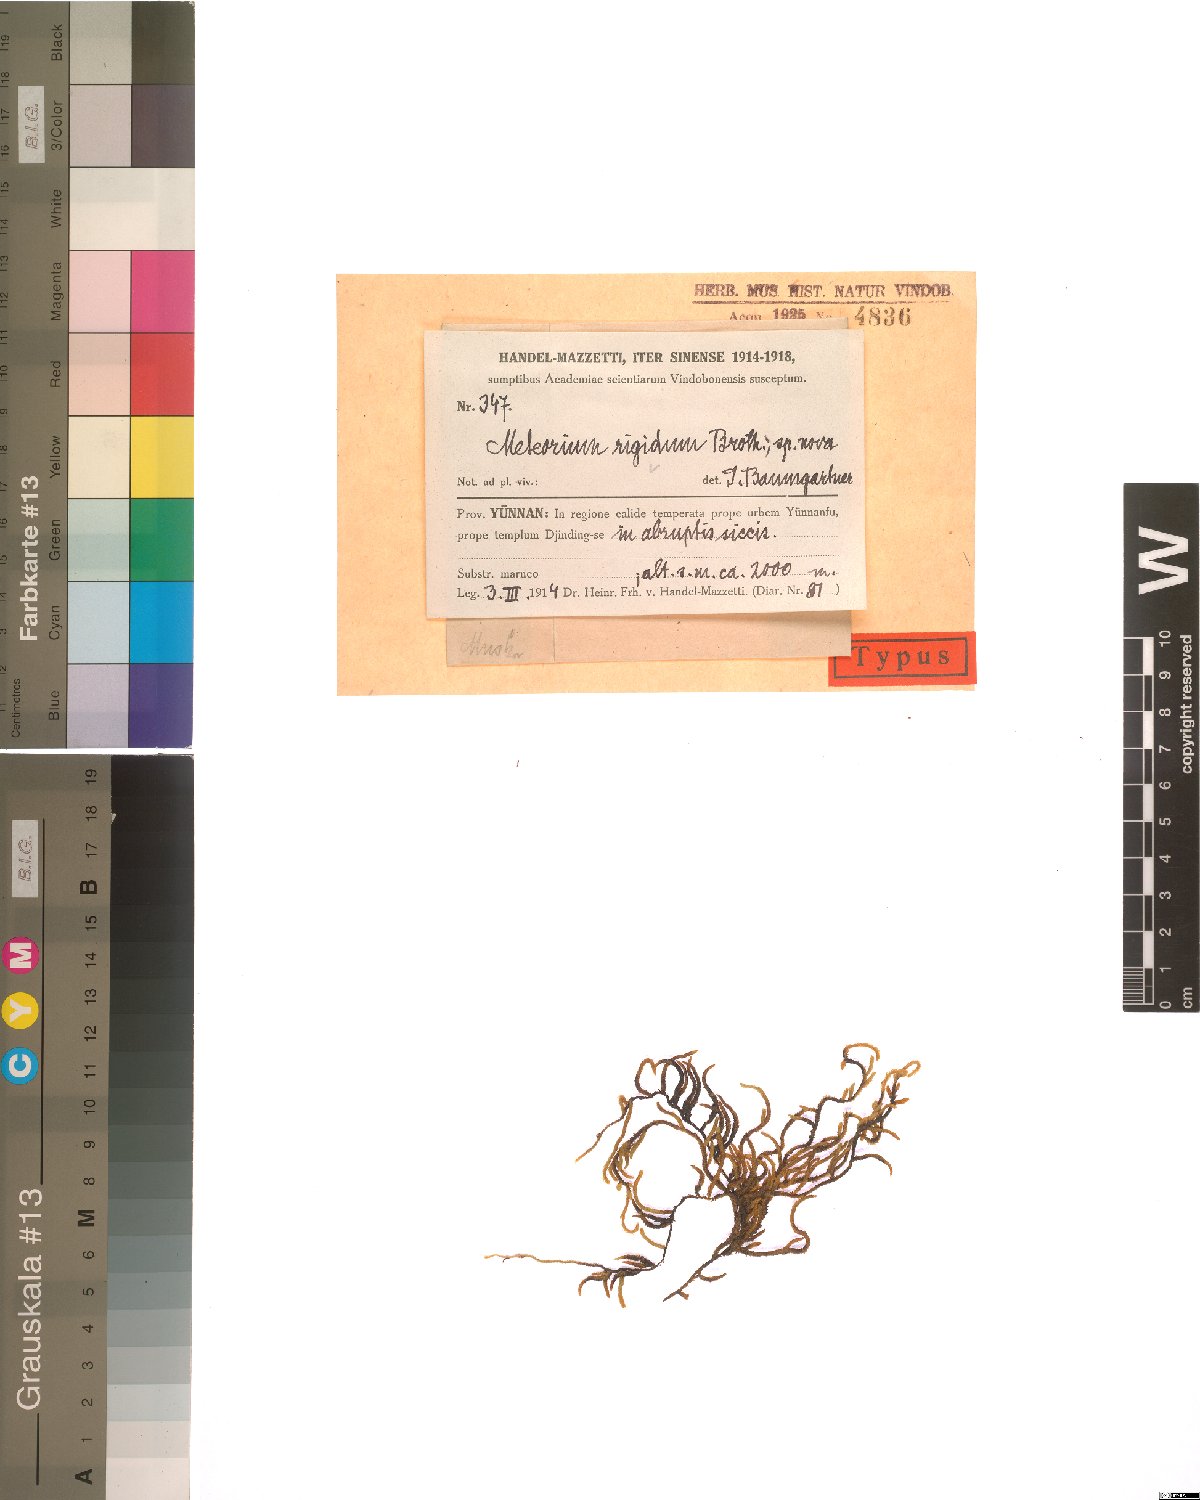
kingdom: Plantae
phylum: Bryophyta
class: Bryopsida
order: Hypnales
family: Meteoriaceae
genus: Meteorium
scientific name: Meteorium buchananii
